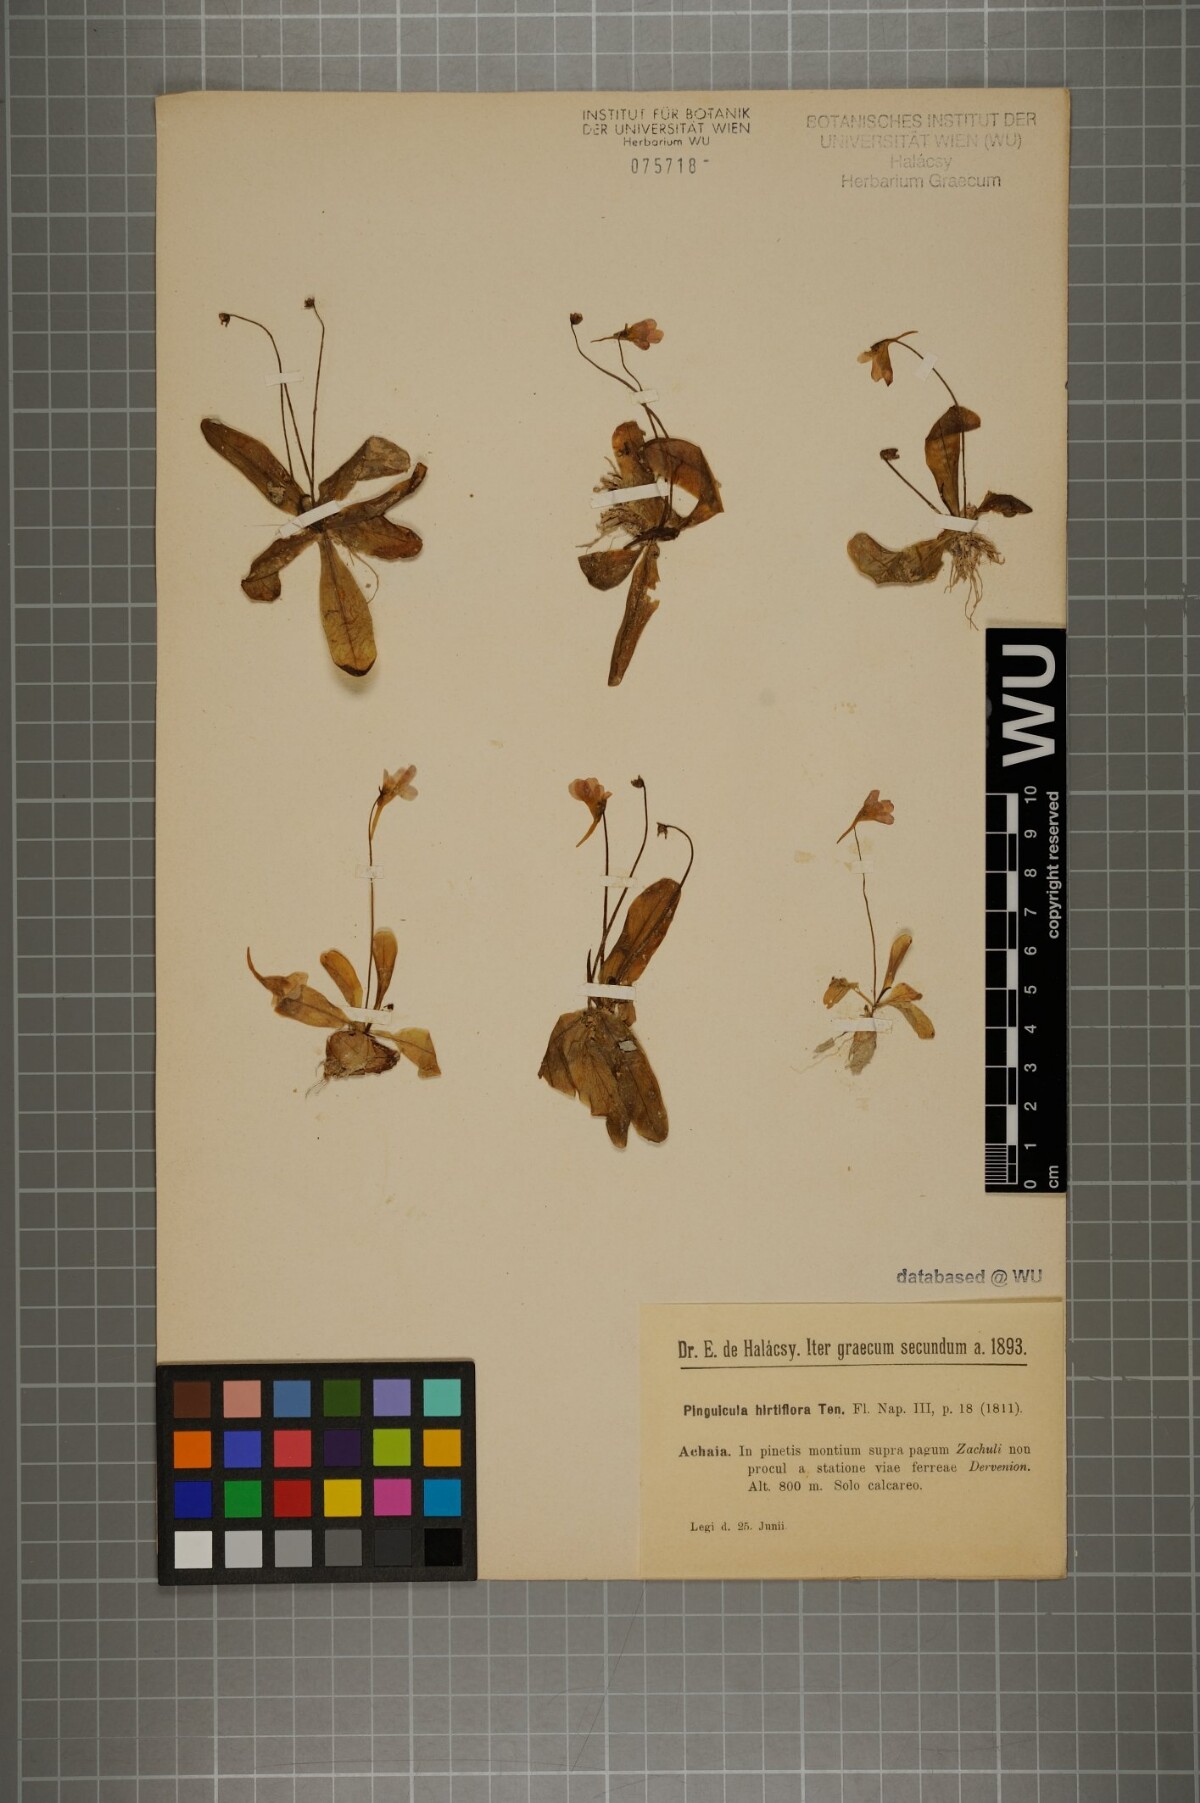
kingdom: Plantae
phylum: Tracheophyta
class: Magnoliopsida
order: Lamiales
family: Lentibulariaceae
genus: Pinguicula
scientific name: Pinguicula crystallina
